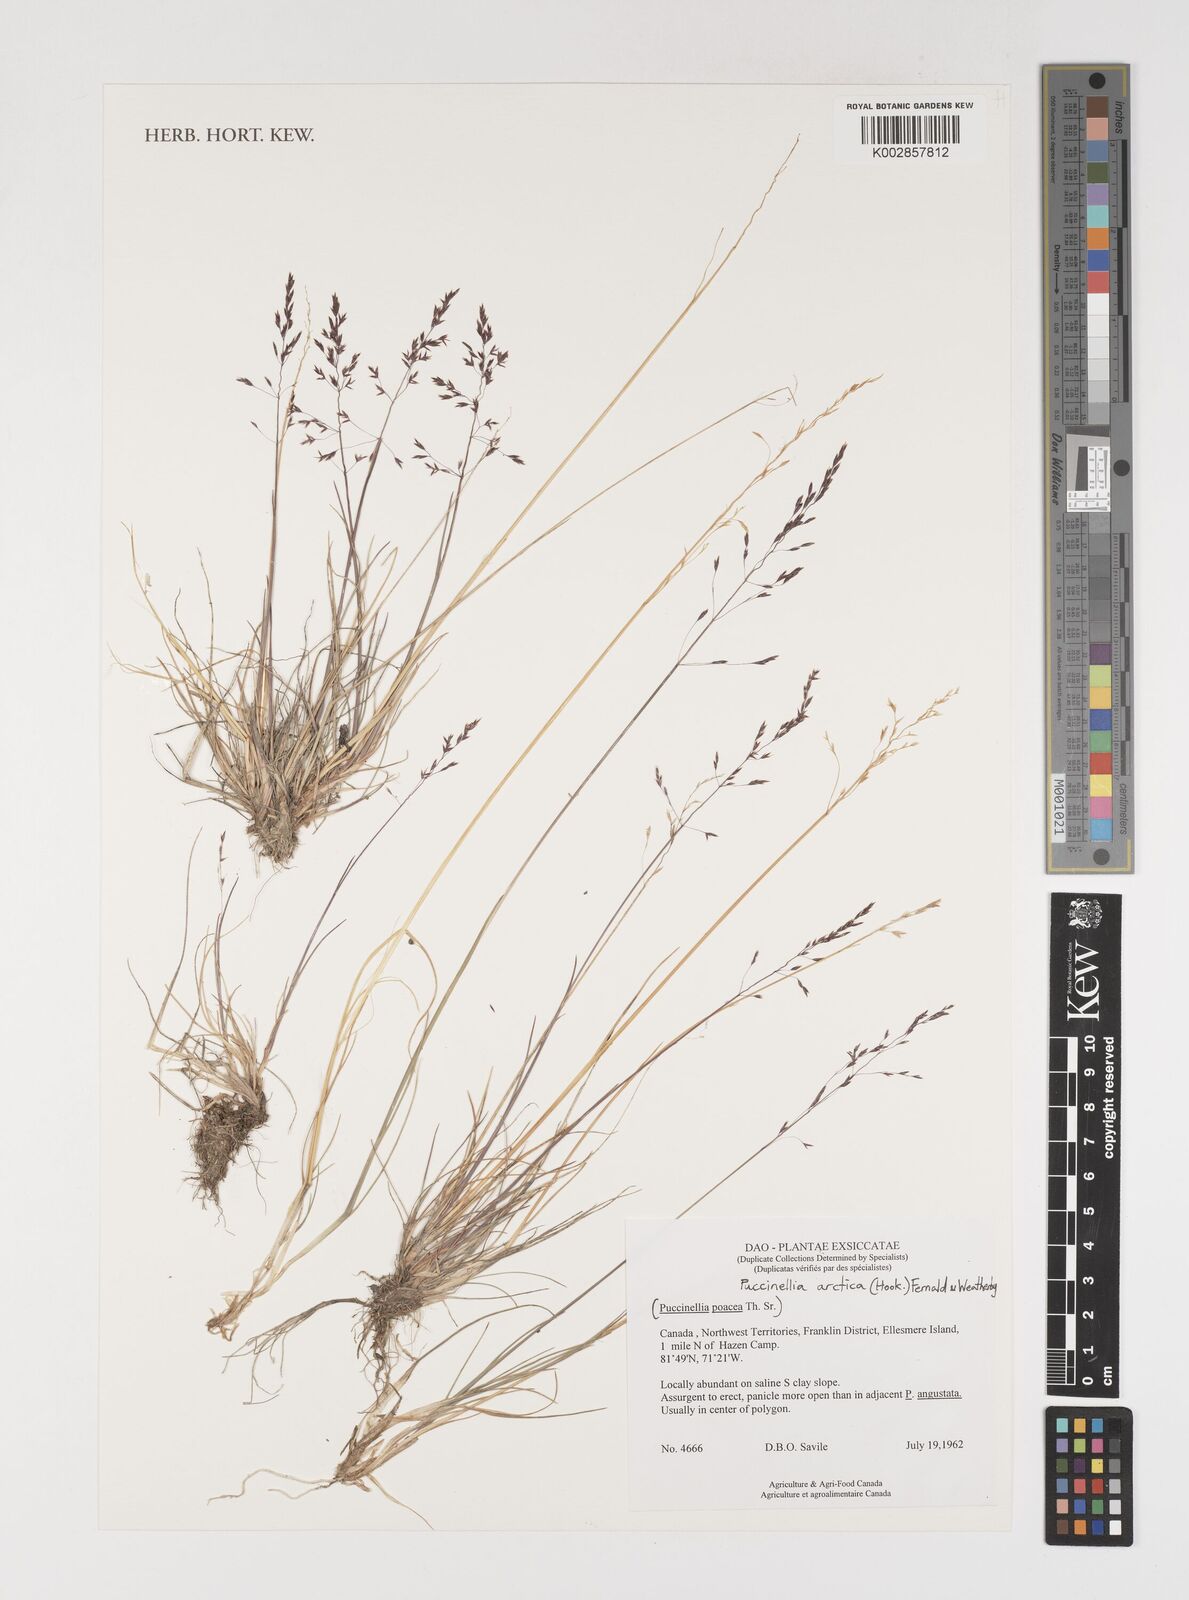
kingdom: Plantae
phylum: Tracheophyta
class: Liliopsida
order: Poales
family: Poaceae
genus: Puccinellia
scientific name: Puccinellia arctica
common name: Arctic alkali grass
